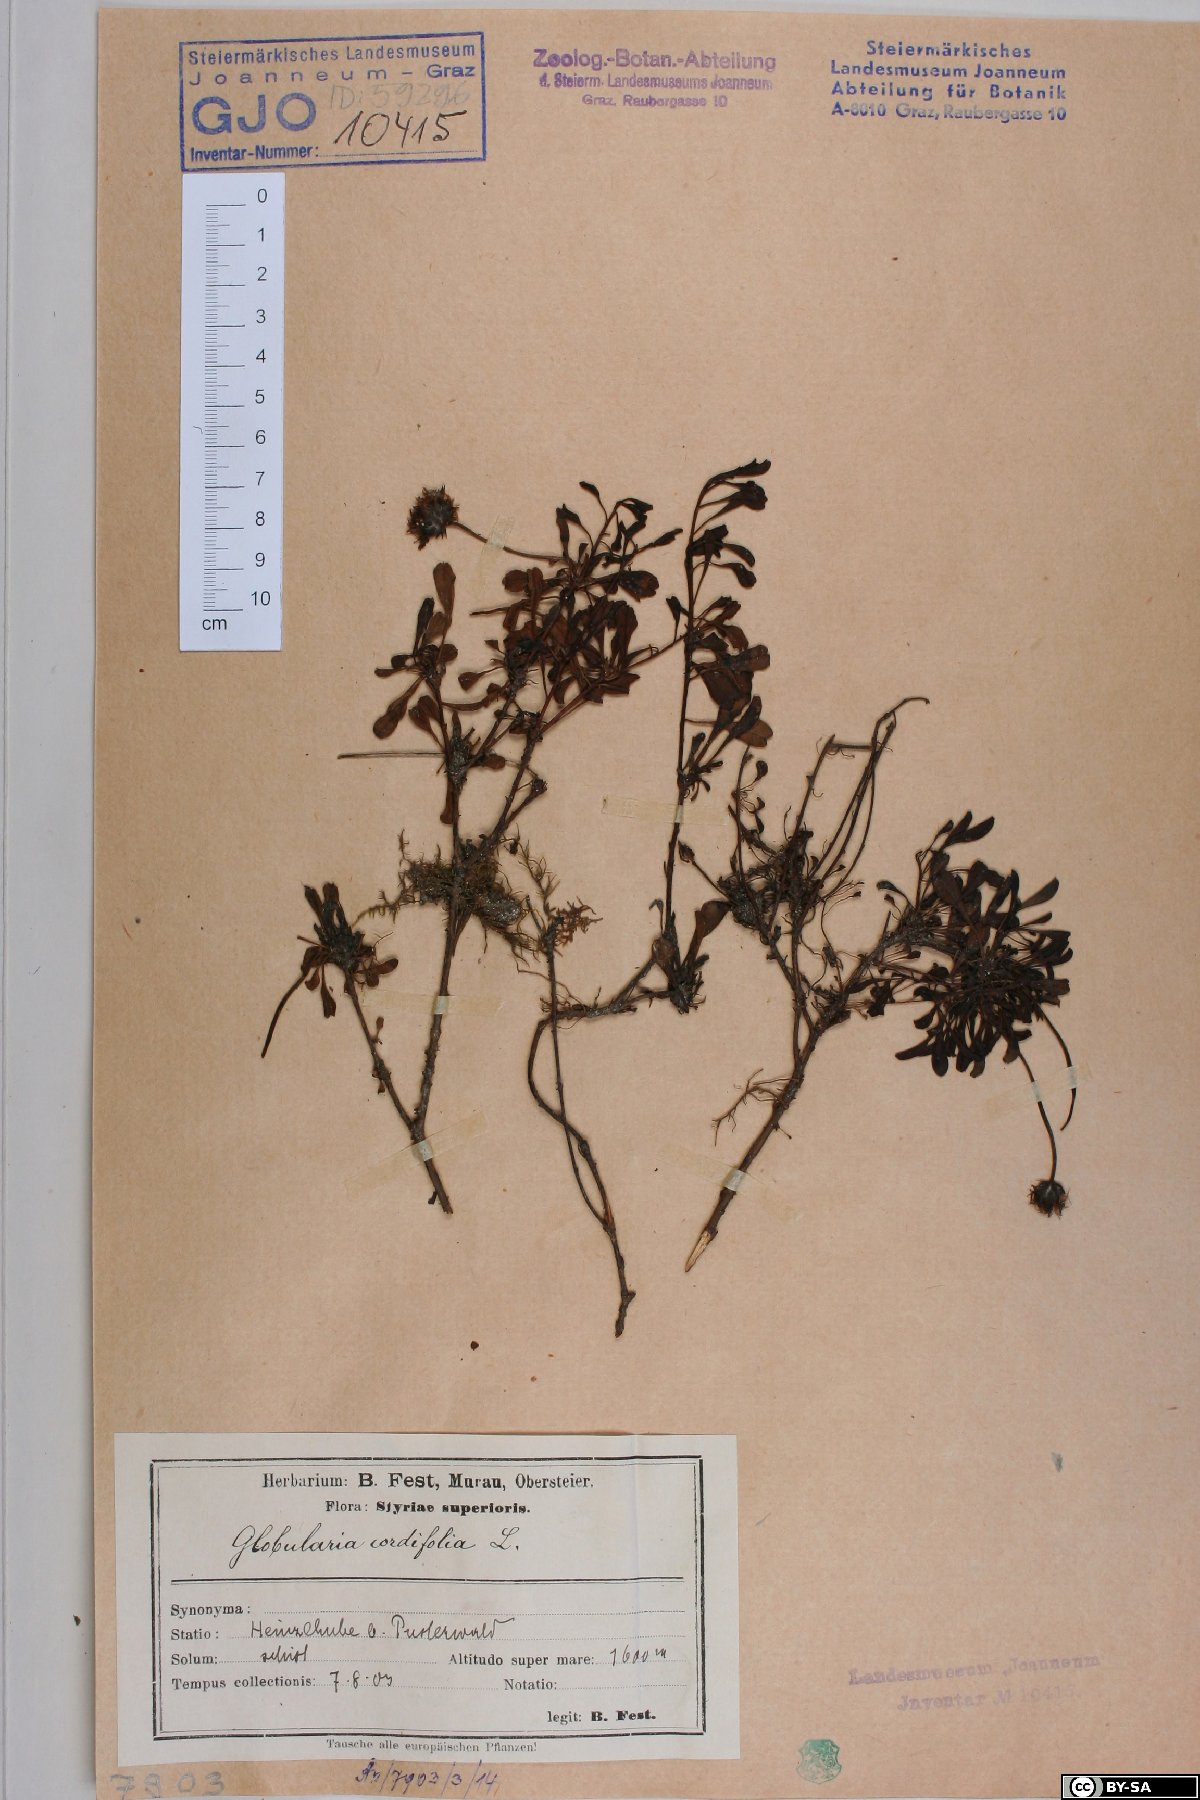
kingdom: Plantae
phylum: Tracheophyta
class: Magnoliopsida
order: Lamiales
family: Plantaginaceae
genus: Globularia
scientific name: Globularia cordifolia
